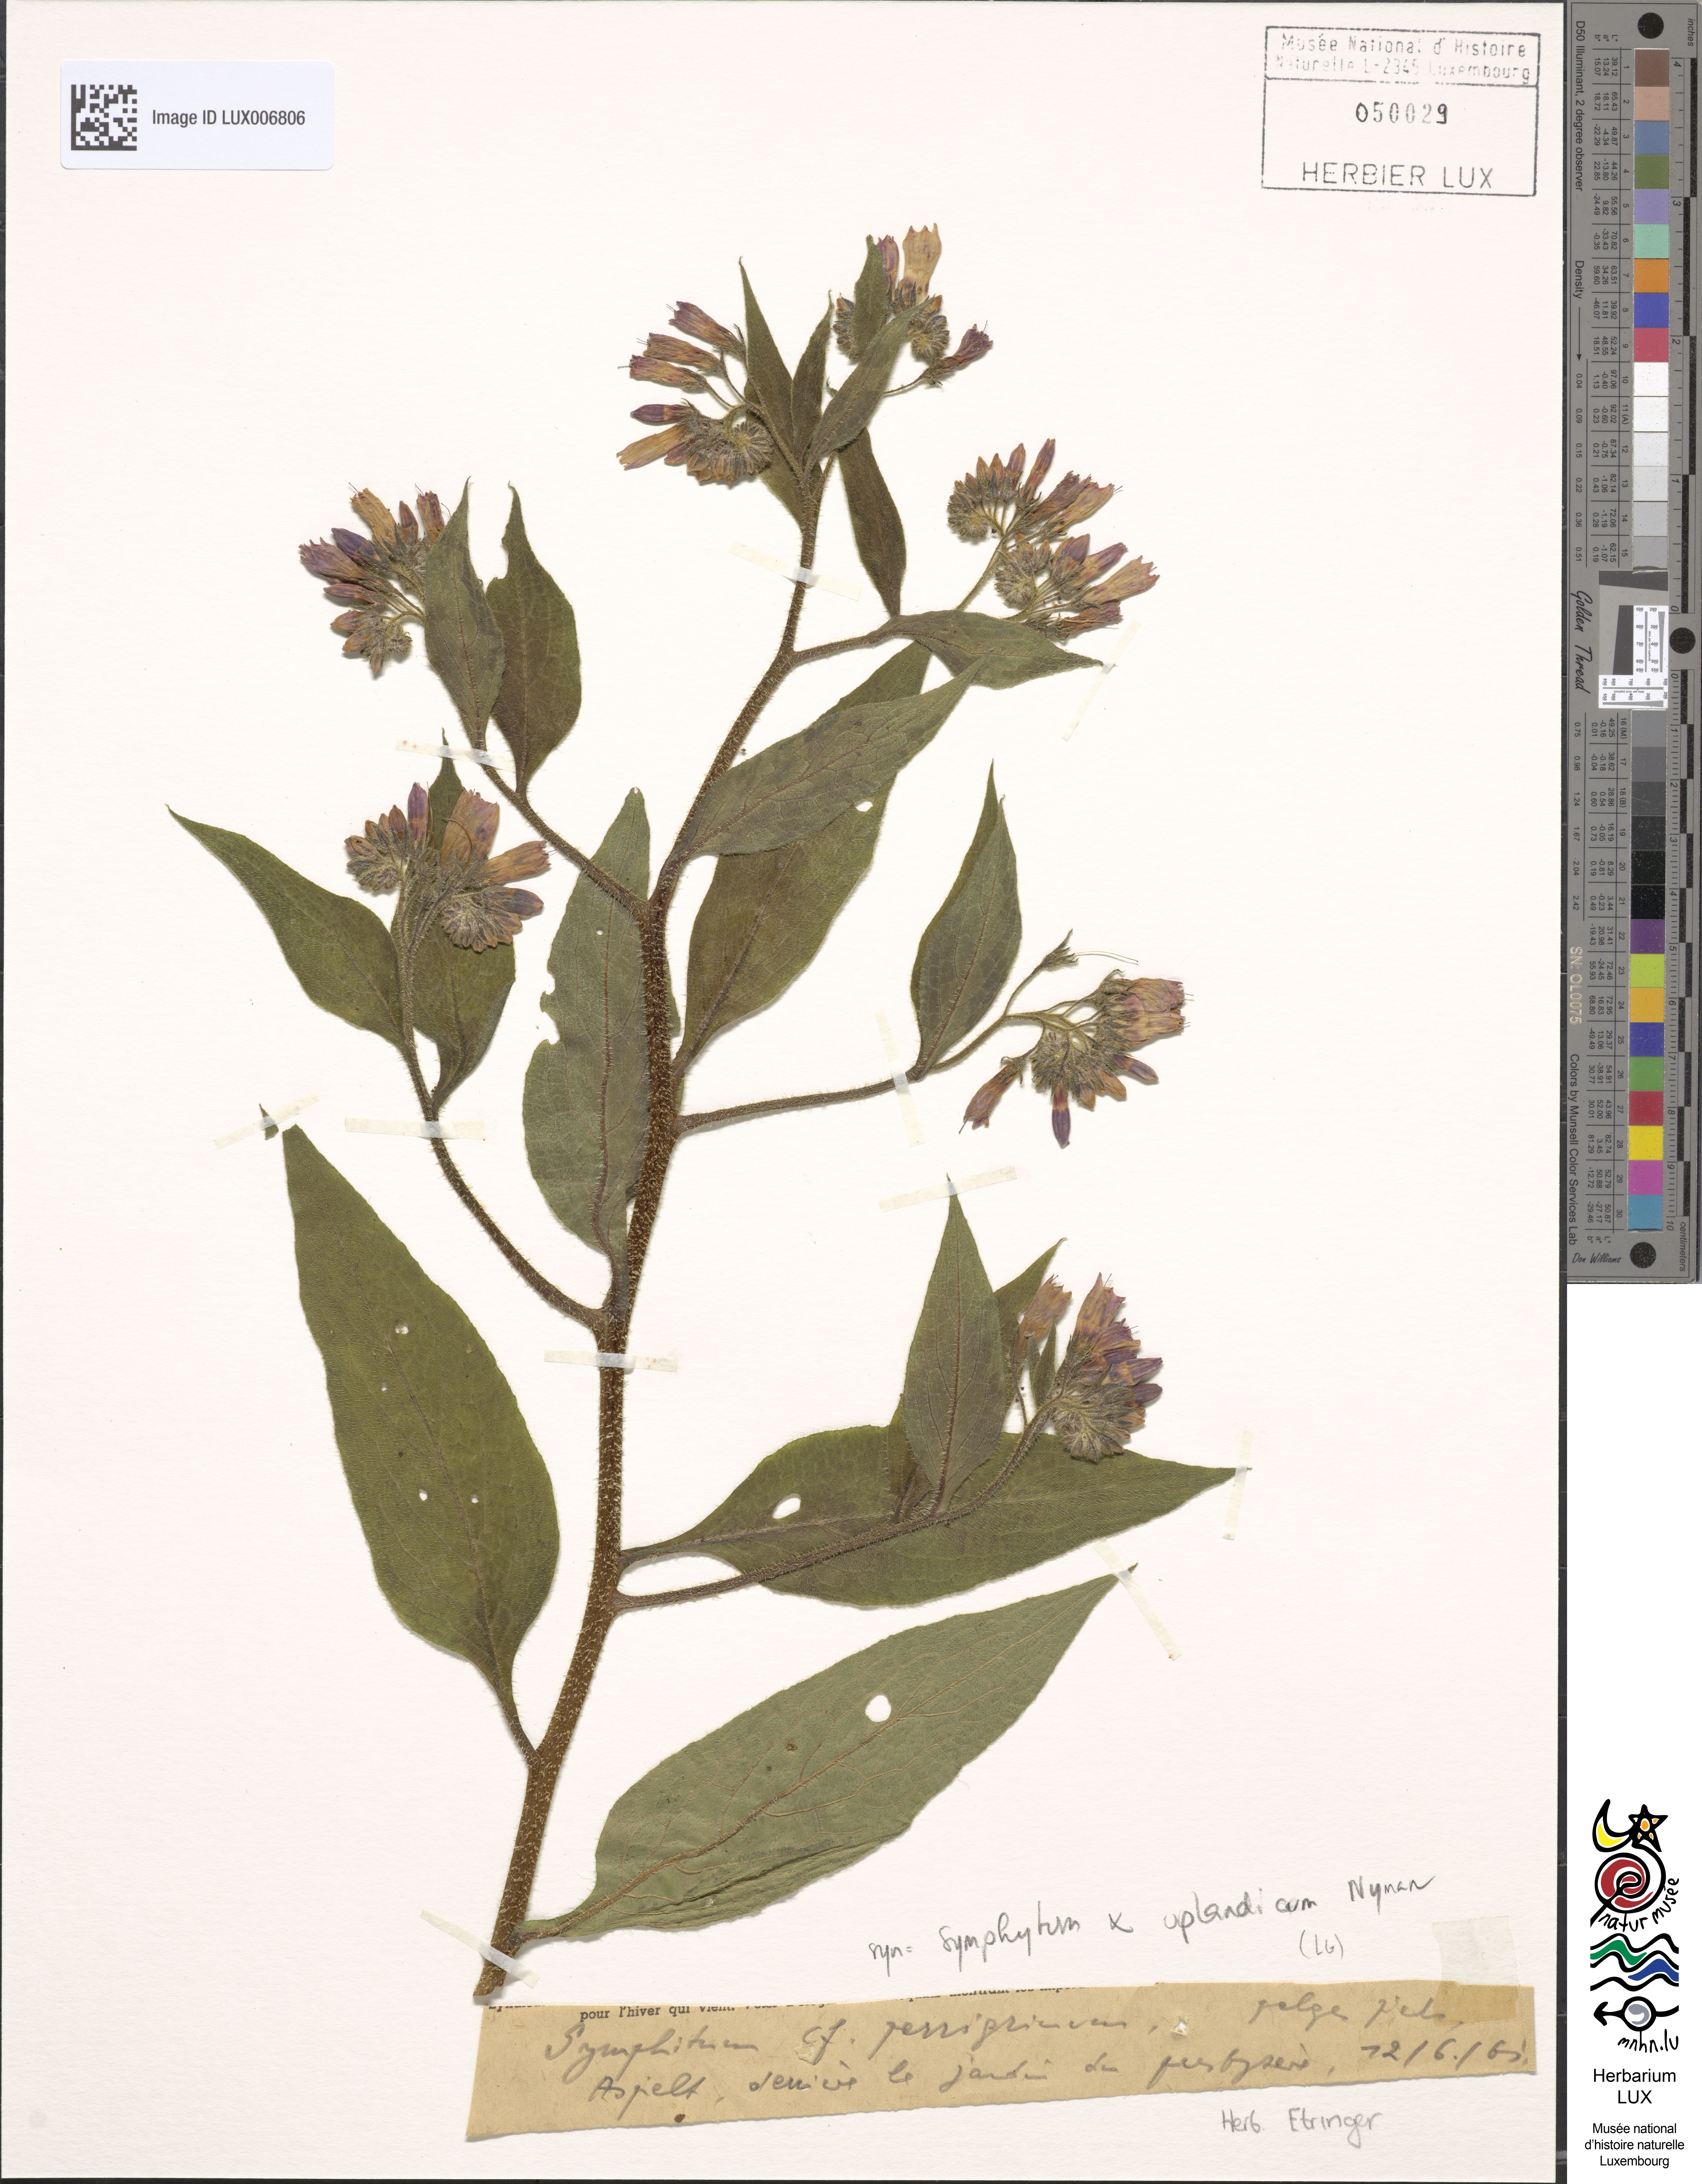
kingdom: Plantae
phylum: Tracheophyta
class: Magnoliopsida
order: Boraginales
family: Boraginaceae
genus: Symphytum
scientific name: Symphytum officinale
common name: Common comfrey
